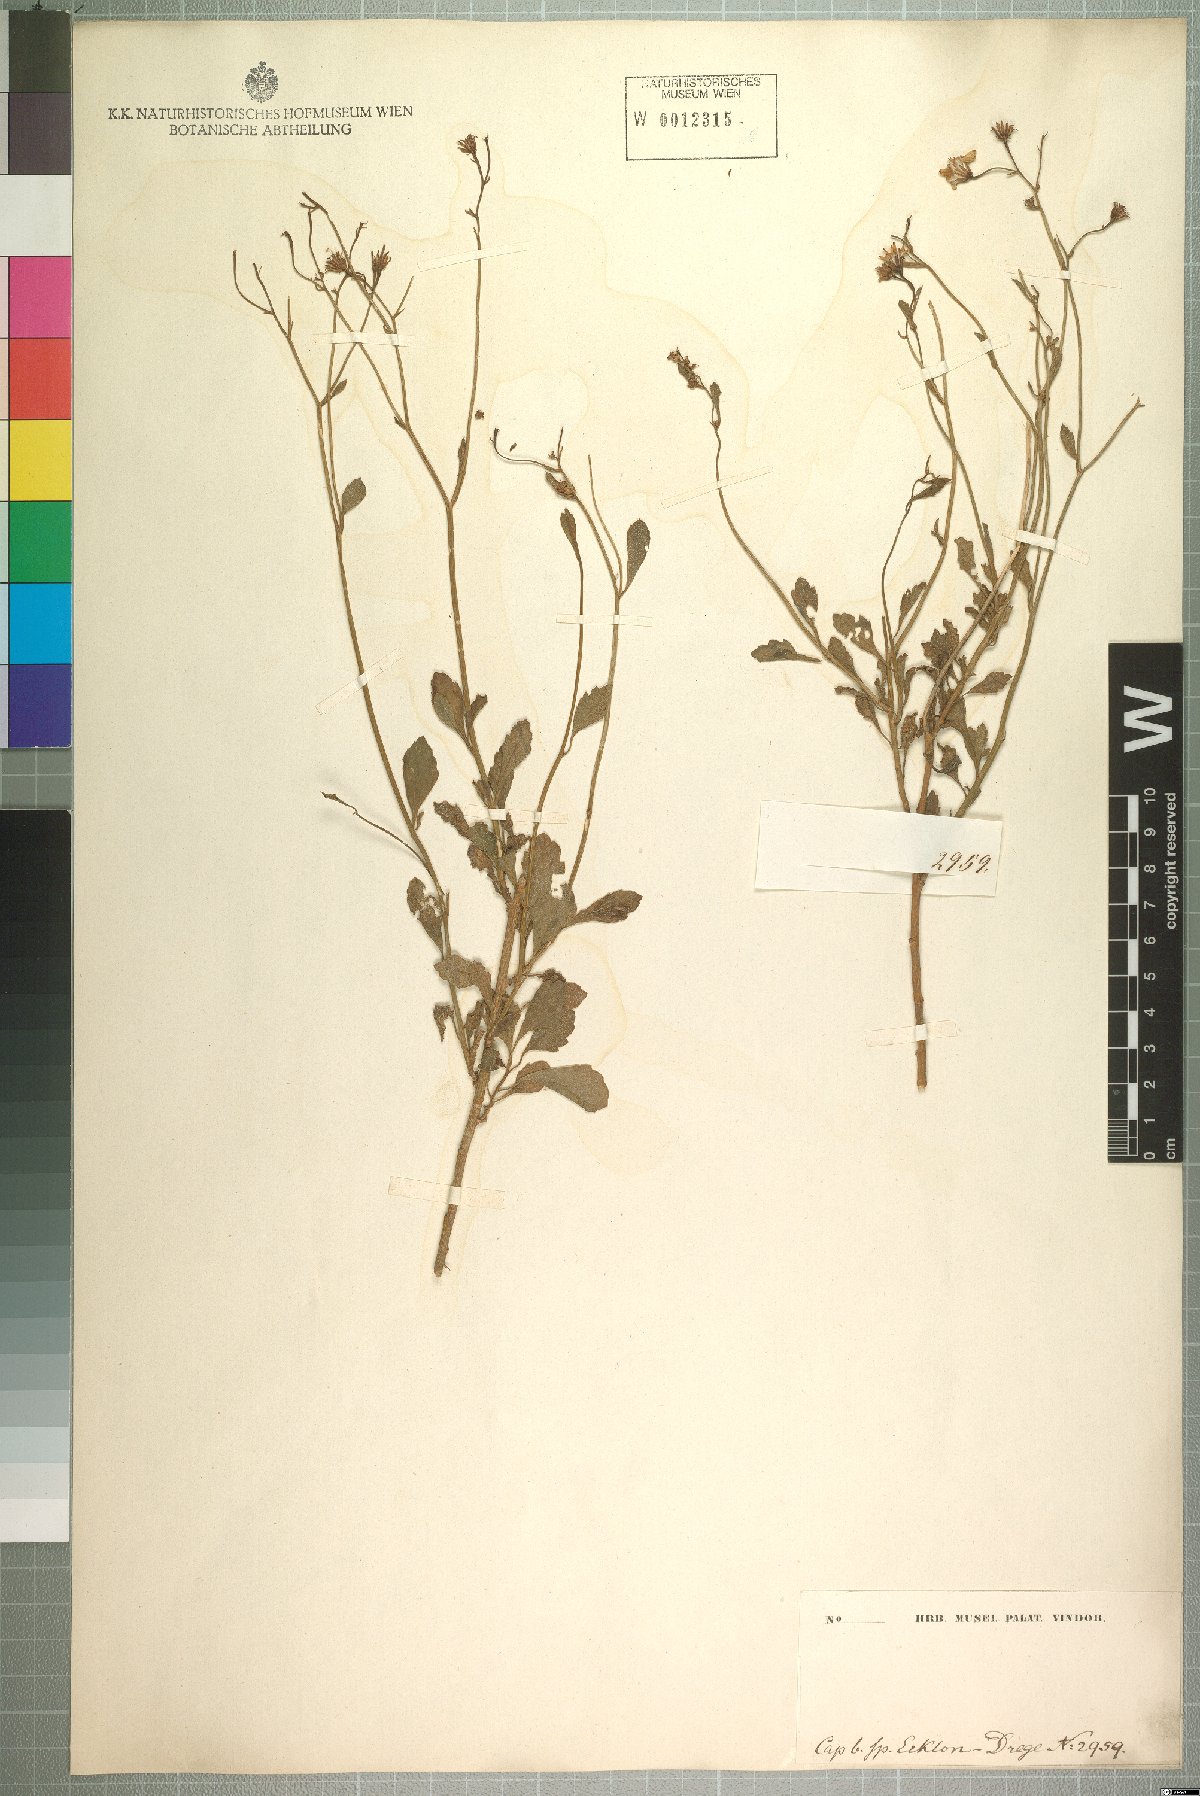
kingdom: Plantae
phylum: Tracheophyta
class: Magnoliopsida
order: Asterales
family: Asteraceae
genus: Senecio
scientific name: Senecio oxyodontus
